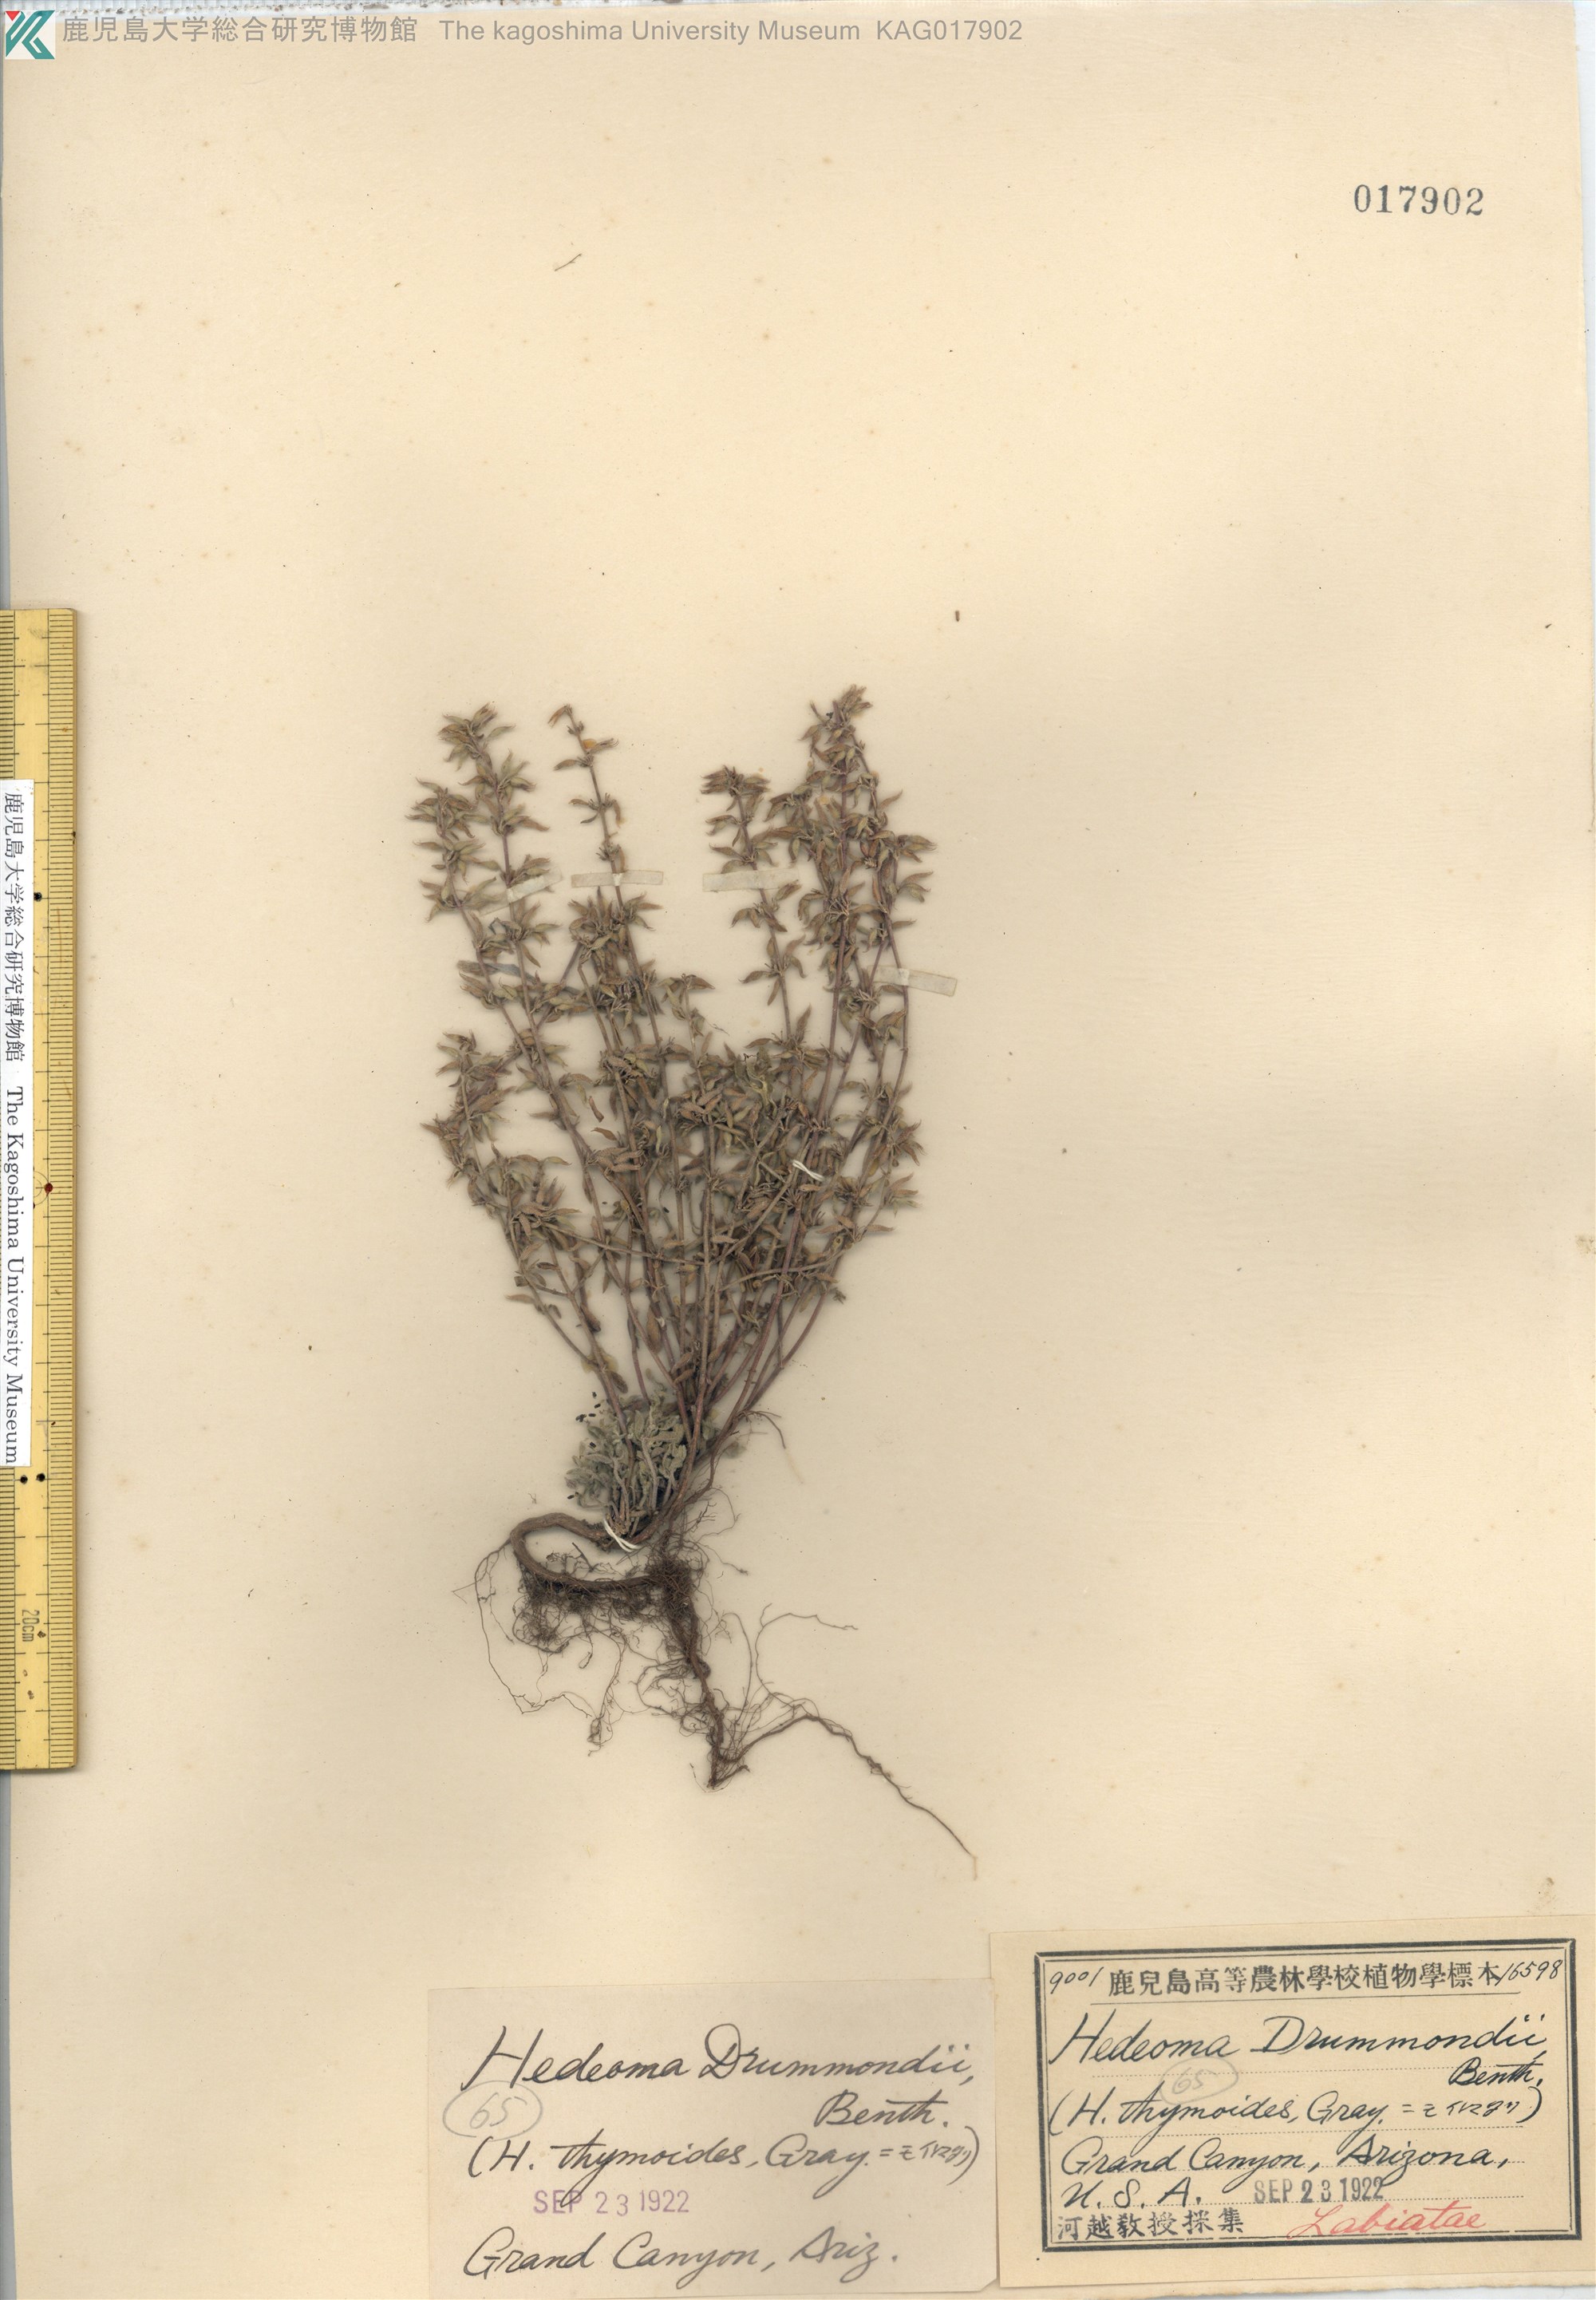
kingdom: Plantae
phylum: Tracheophyta
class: Magnoliopsida
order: Lamiales
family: Lamiaceae
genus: Hedeoma
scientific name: Hedeoma drummondii
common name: New mexico pennyroyal
